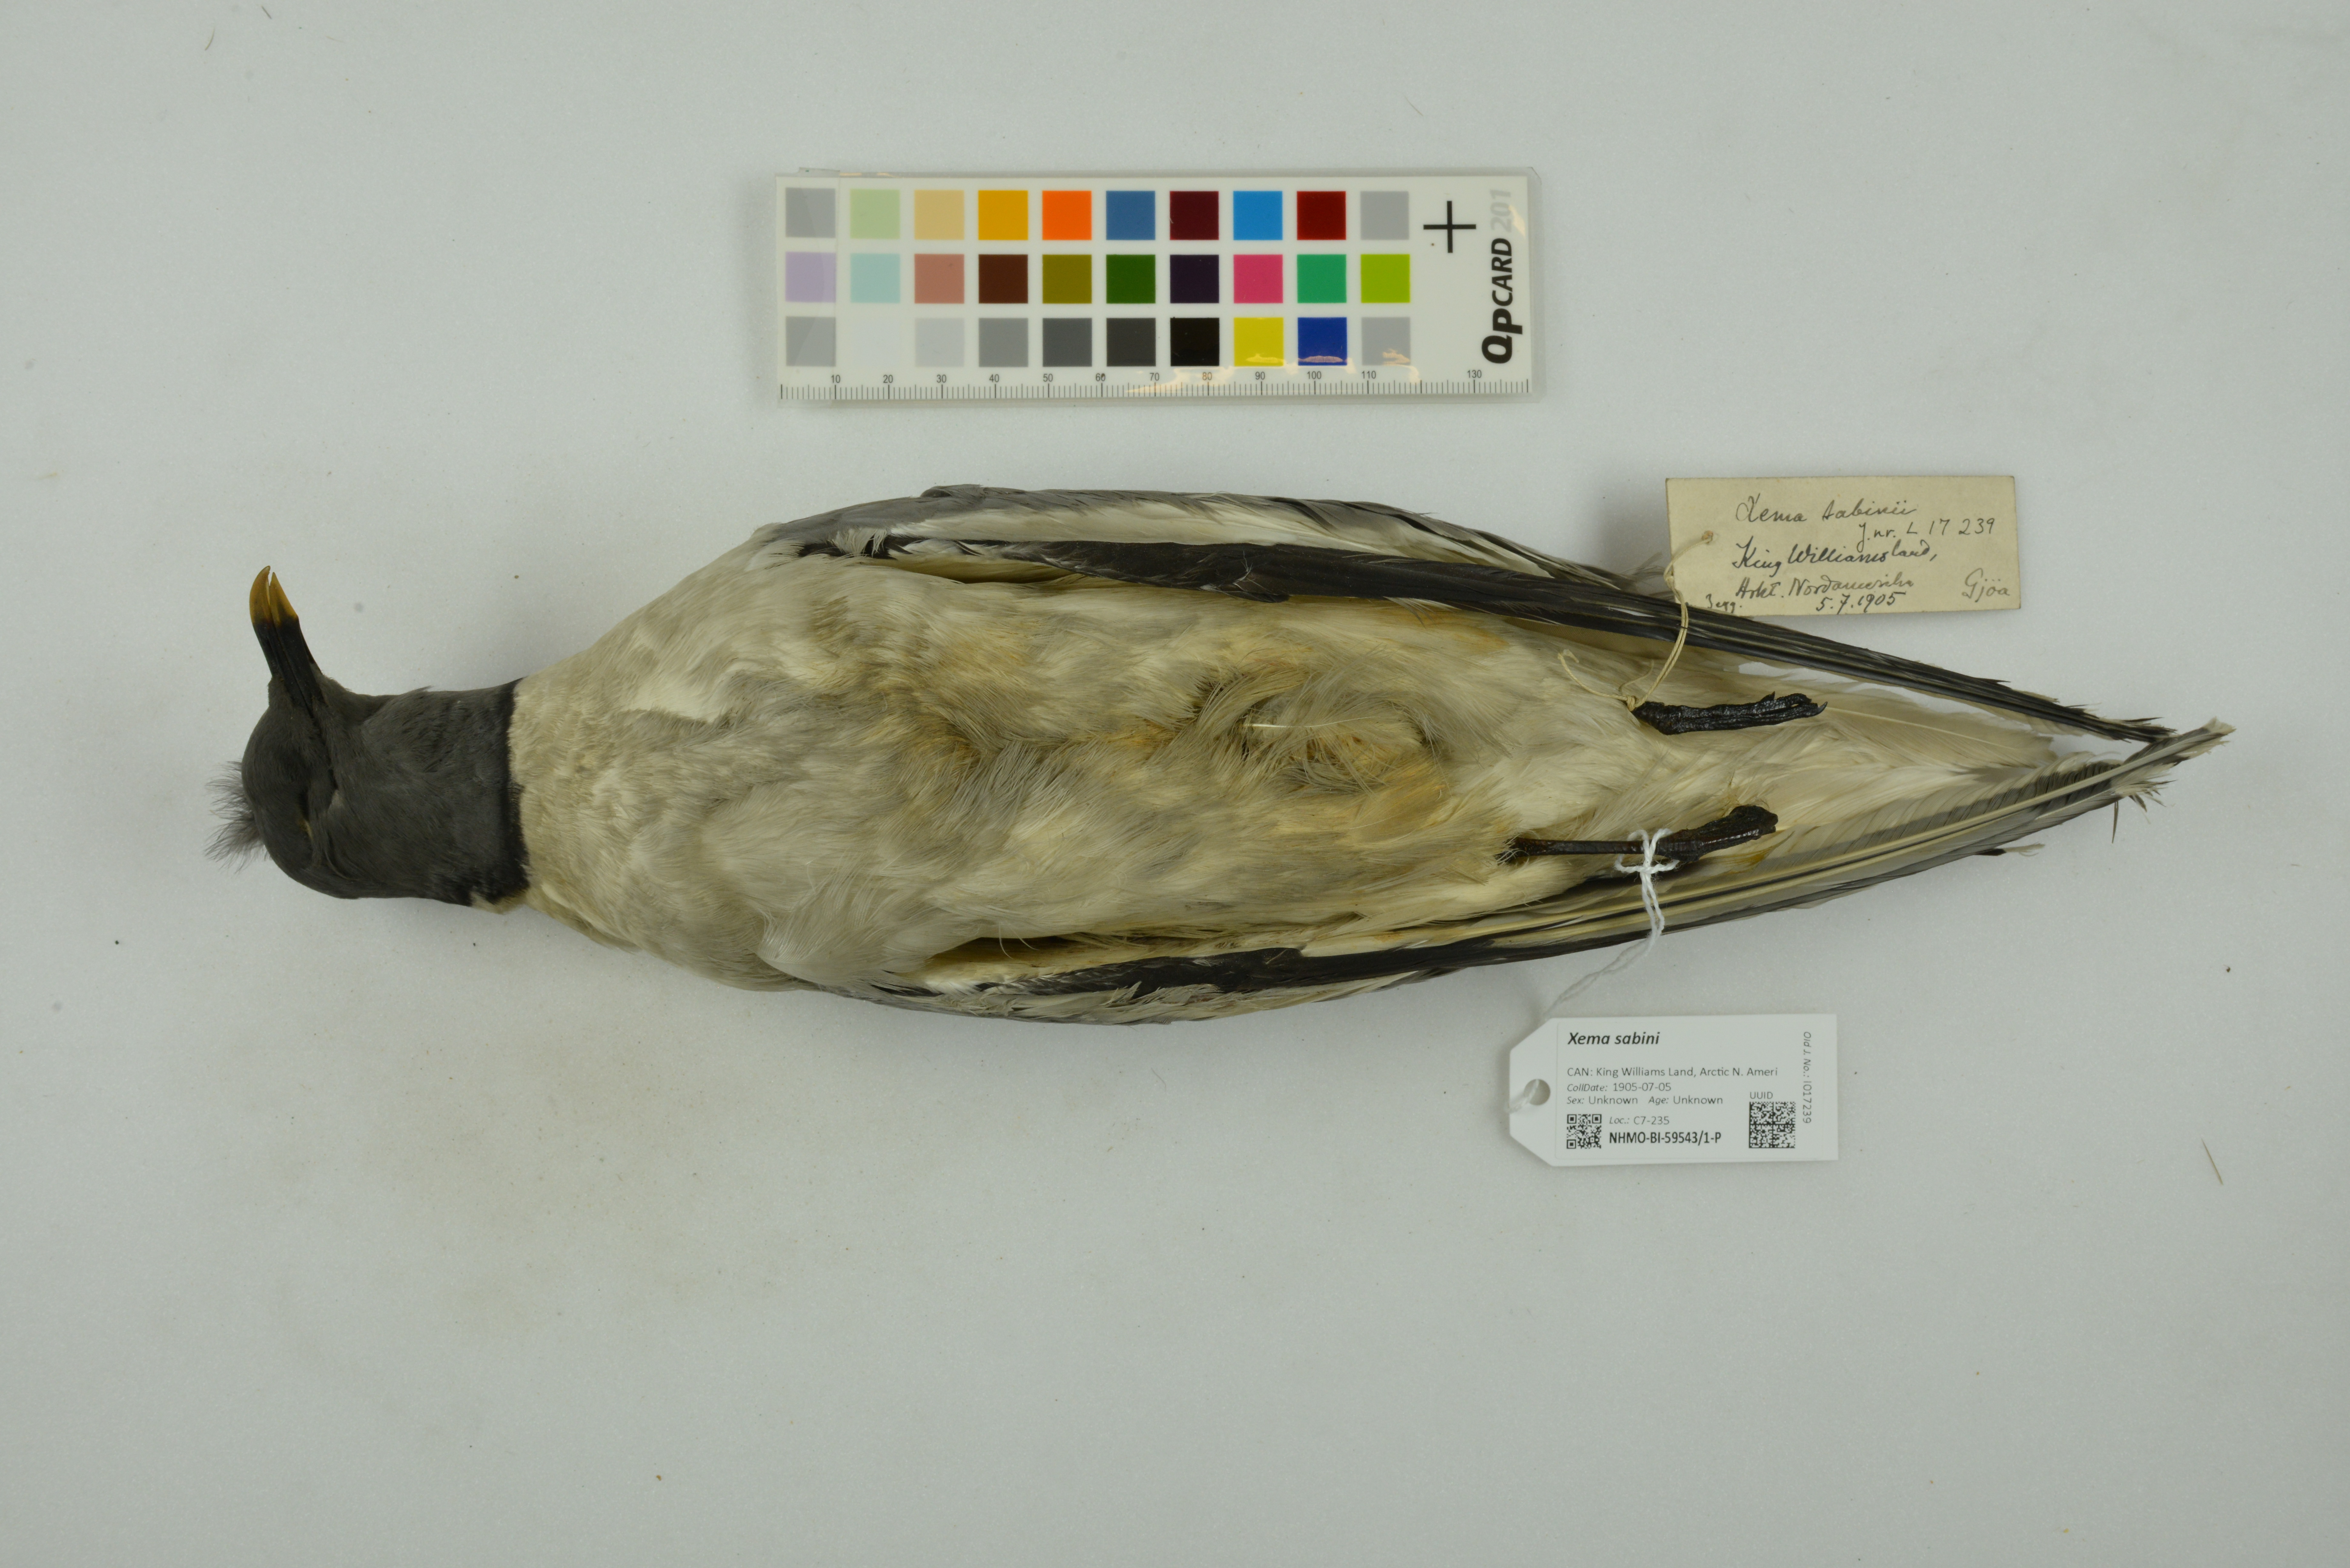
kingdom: Animalia
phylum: Chordata
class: Aves
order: Charadriiformes
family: Laridae
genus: Xema
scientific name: Xema sabini
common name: Sabine's gull
